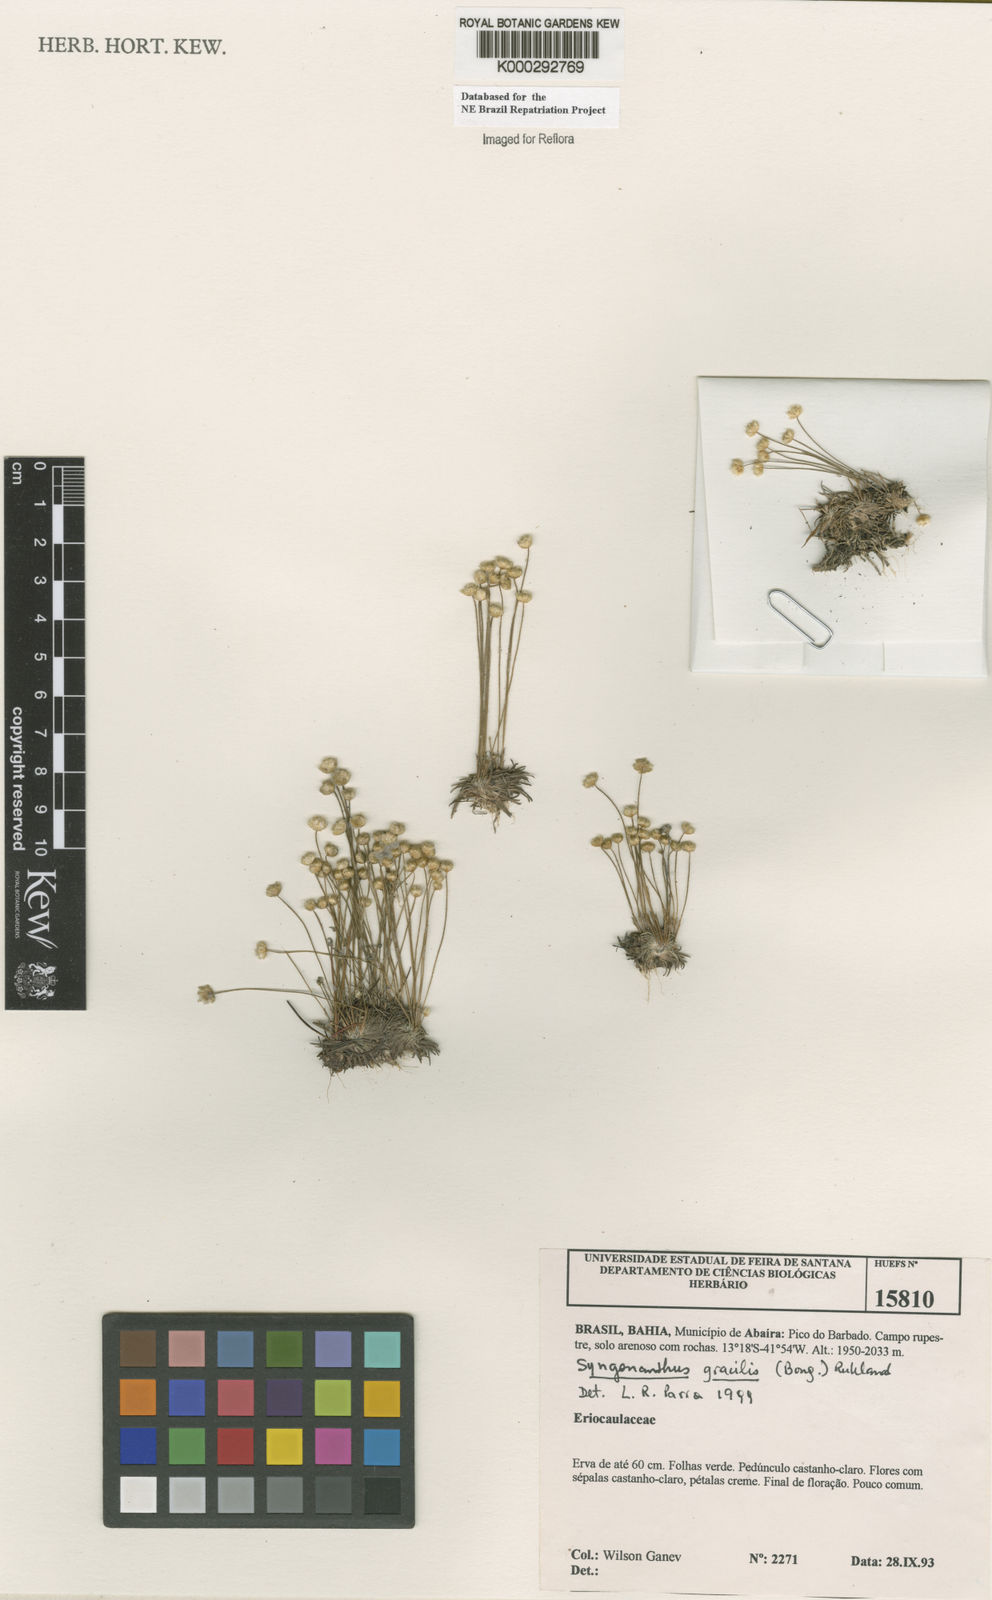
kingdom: Plantae
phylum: Tracheophyta
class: Liliopsida
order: Poales
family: Eriocaulaceae
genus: Syngonanthus
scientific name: Syngonanthus gracilis
